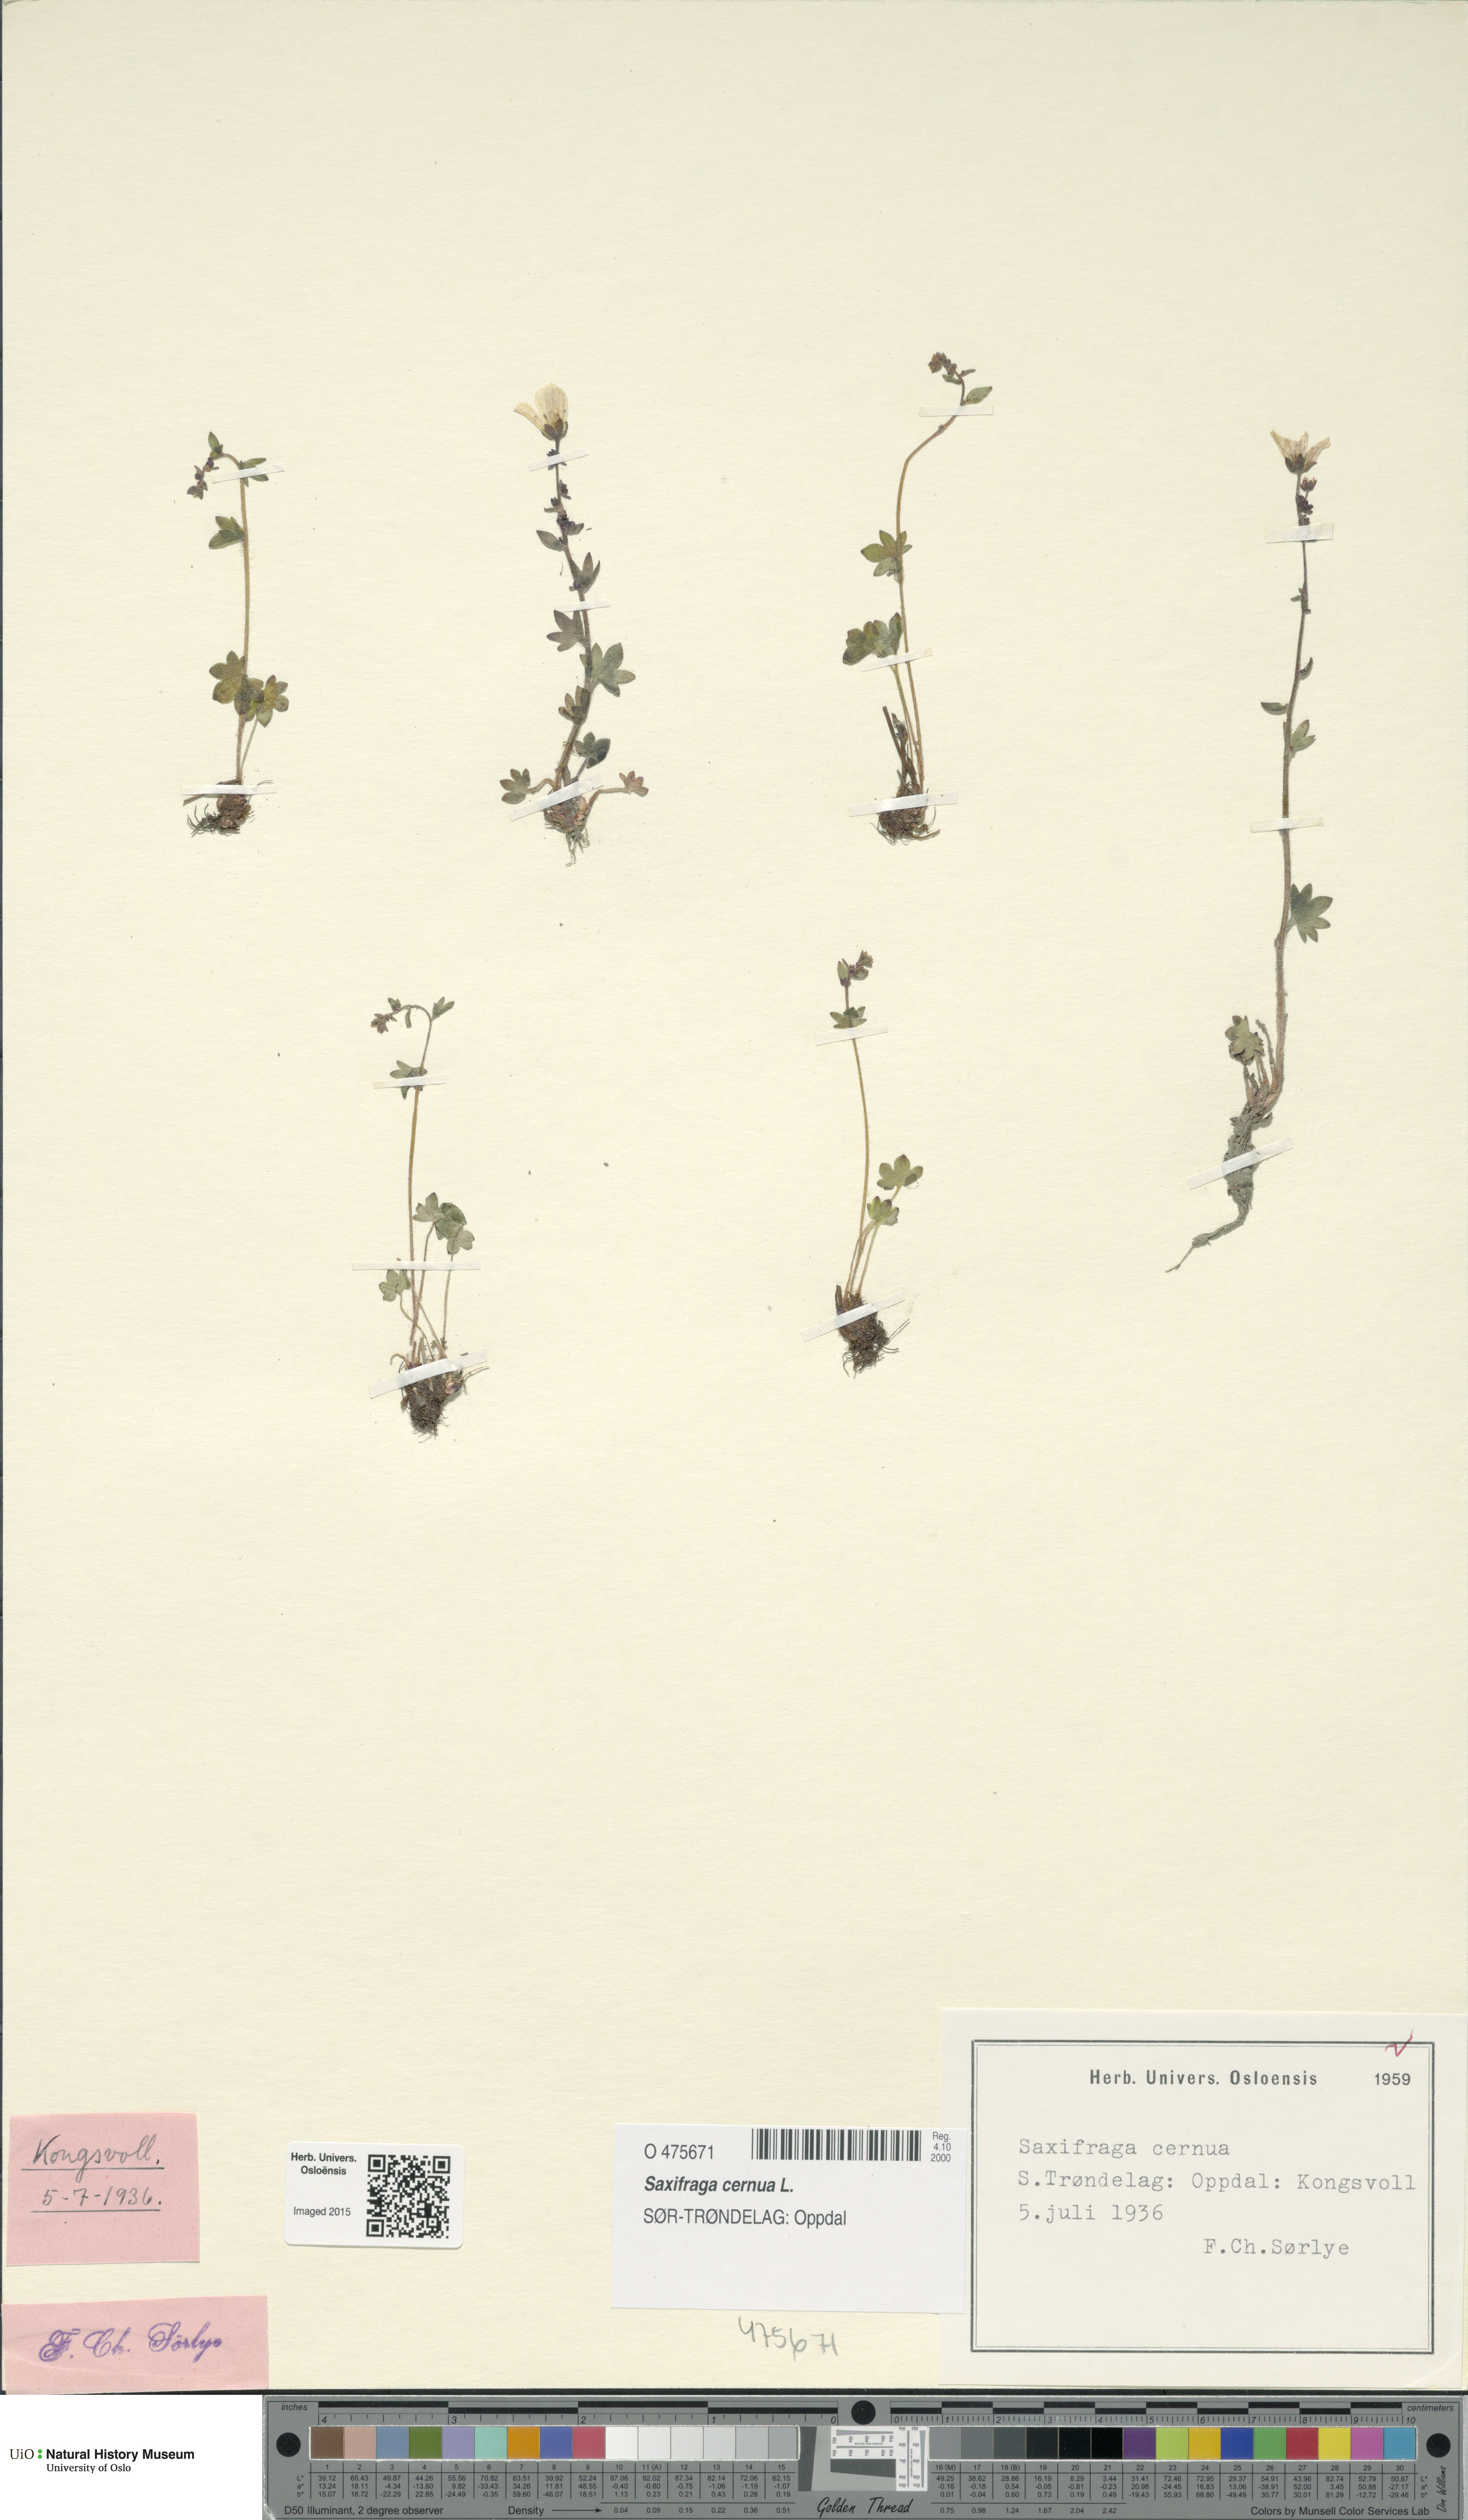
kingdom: Plantae
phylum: Tracheophyta
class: Magnoliopsida
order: Saxifragales
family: Saxifragaceae
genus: Saxifraga
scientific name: Saxifraga cernua
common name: Drooping saxifrage
